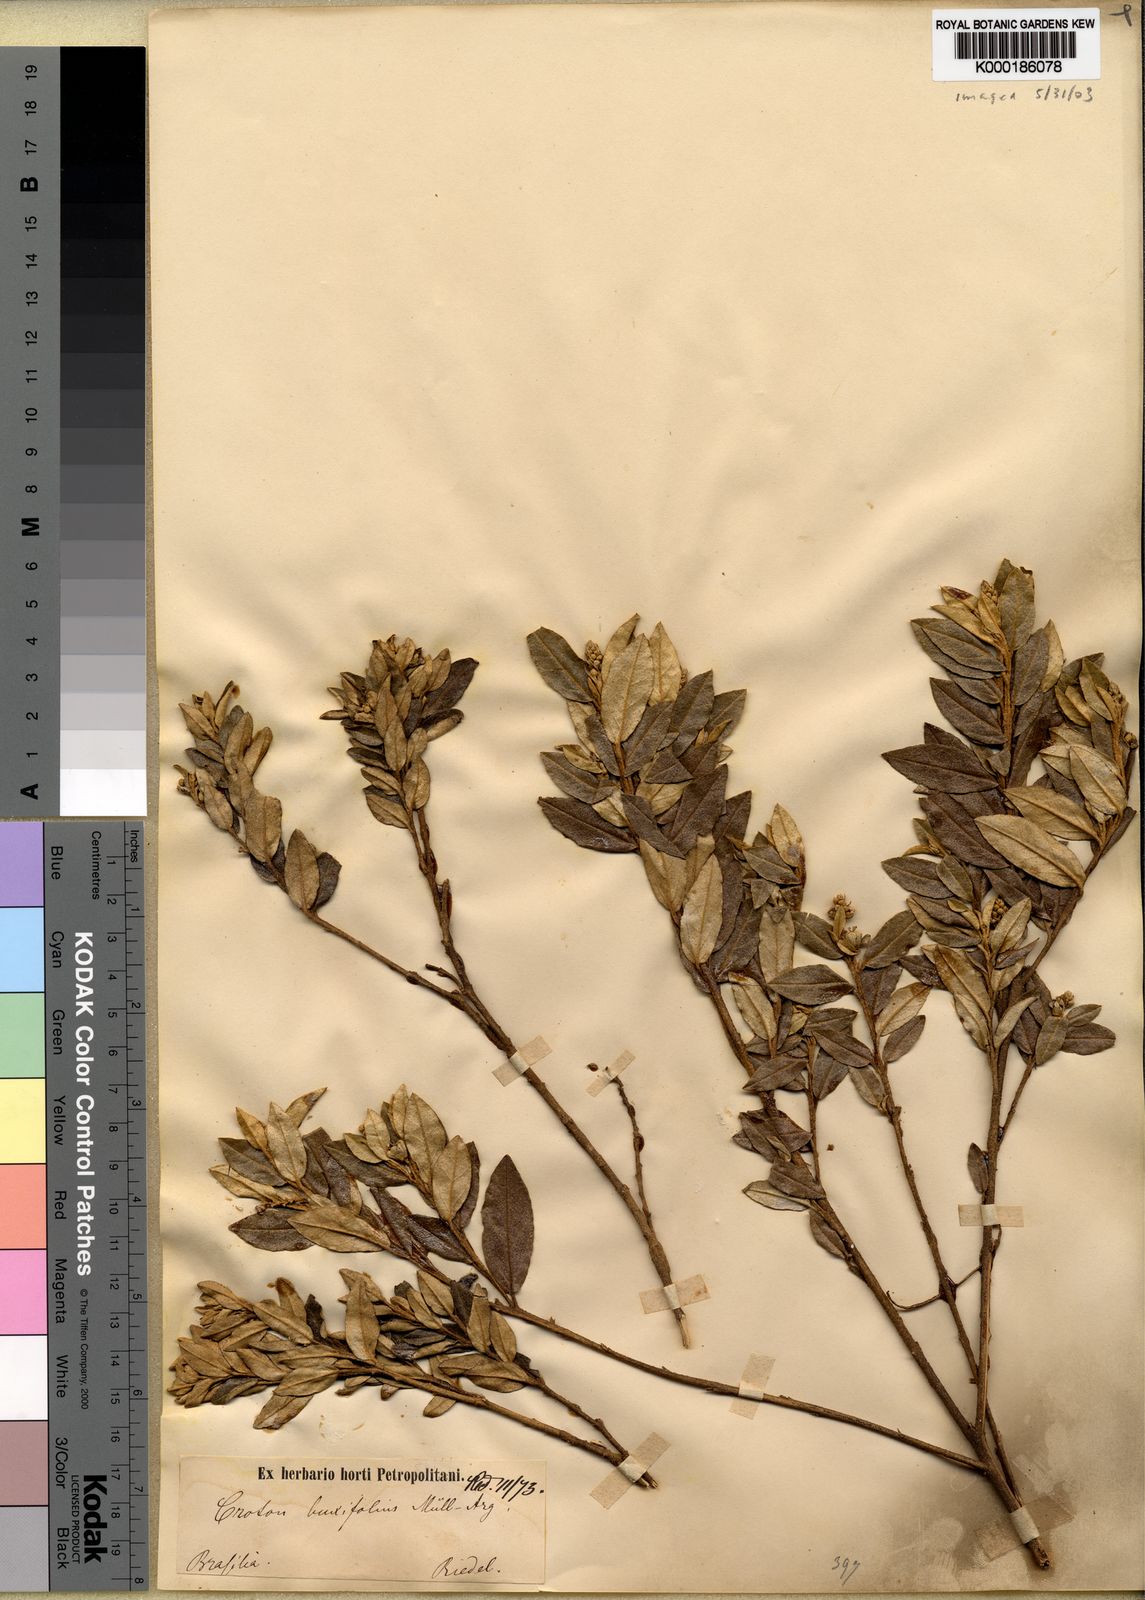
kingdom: Plantae
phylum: Tracheophyta
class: Magnoliopsida
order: Malpighiales
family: Euphorbiaceae
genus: Croton
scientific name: Croton
